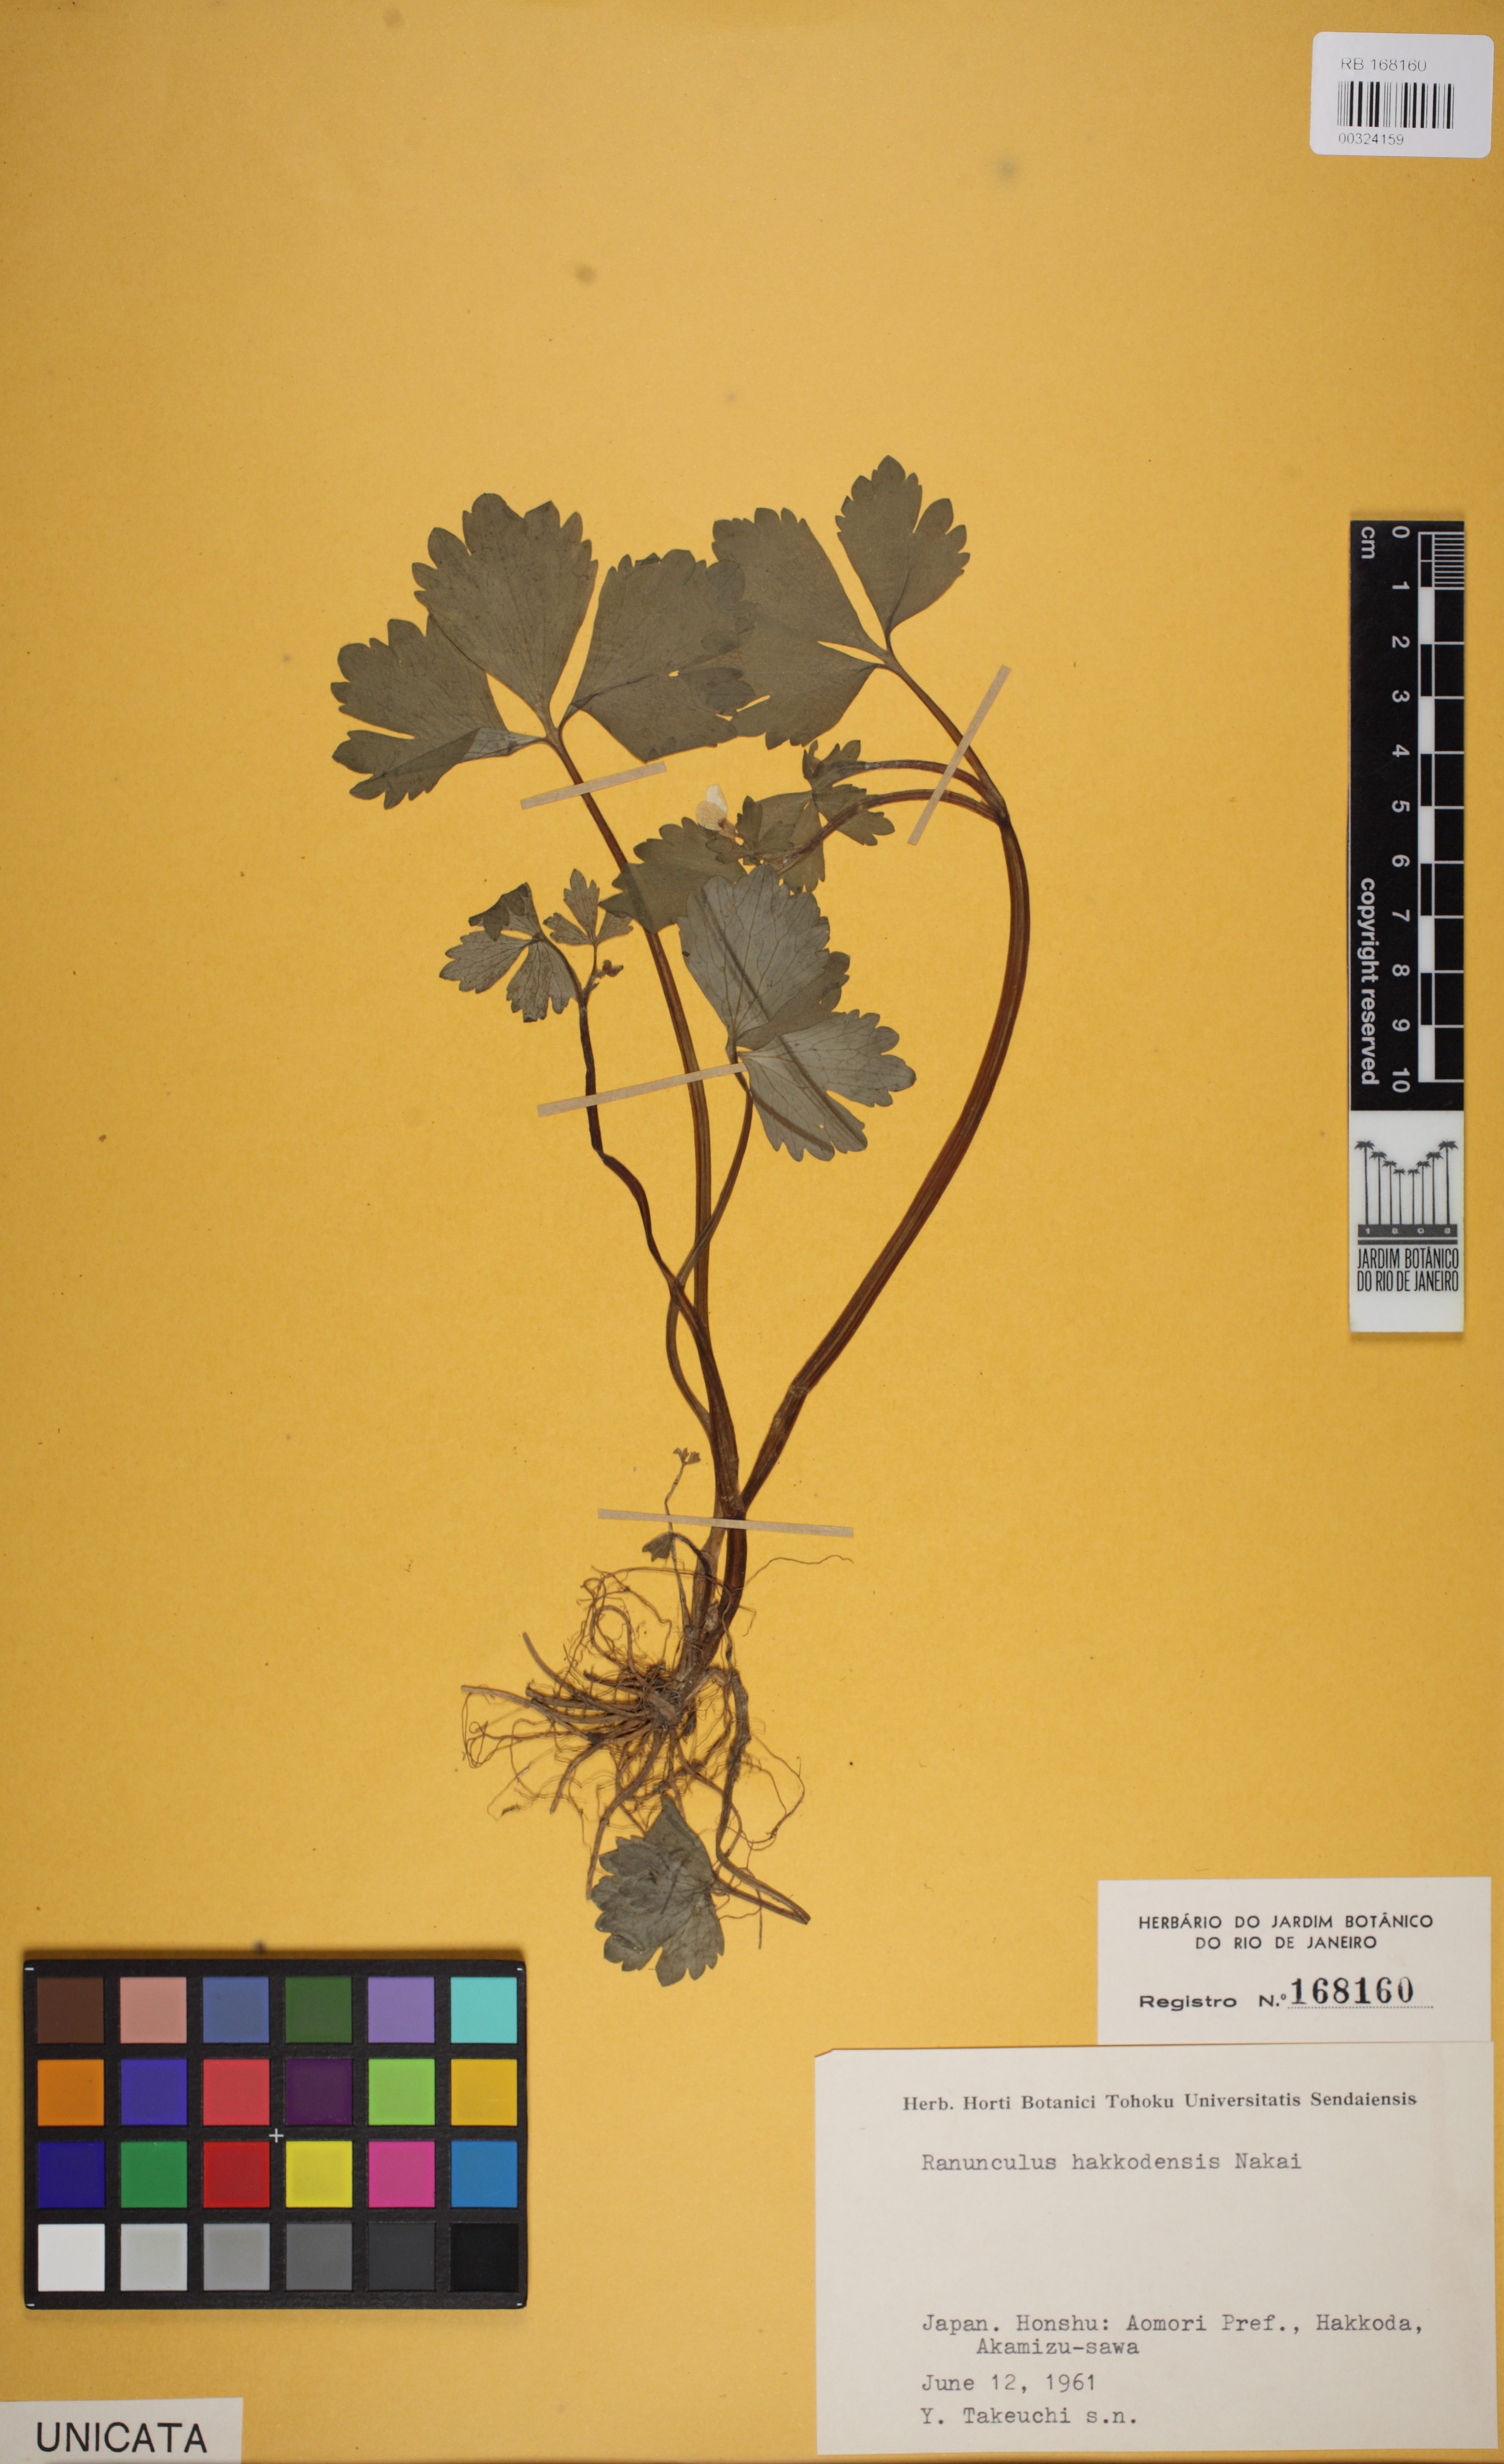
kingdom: Plantae
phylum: Tracheophyta
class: Magnoliopsida
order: Ranunculales
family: Ranunculaceae
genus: Ranunculus
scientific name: Ranunculus hakkodensis
